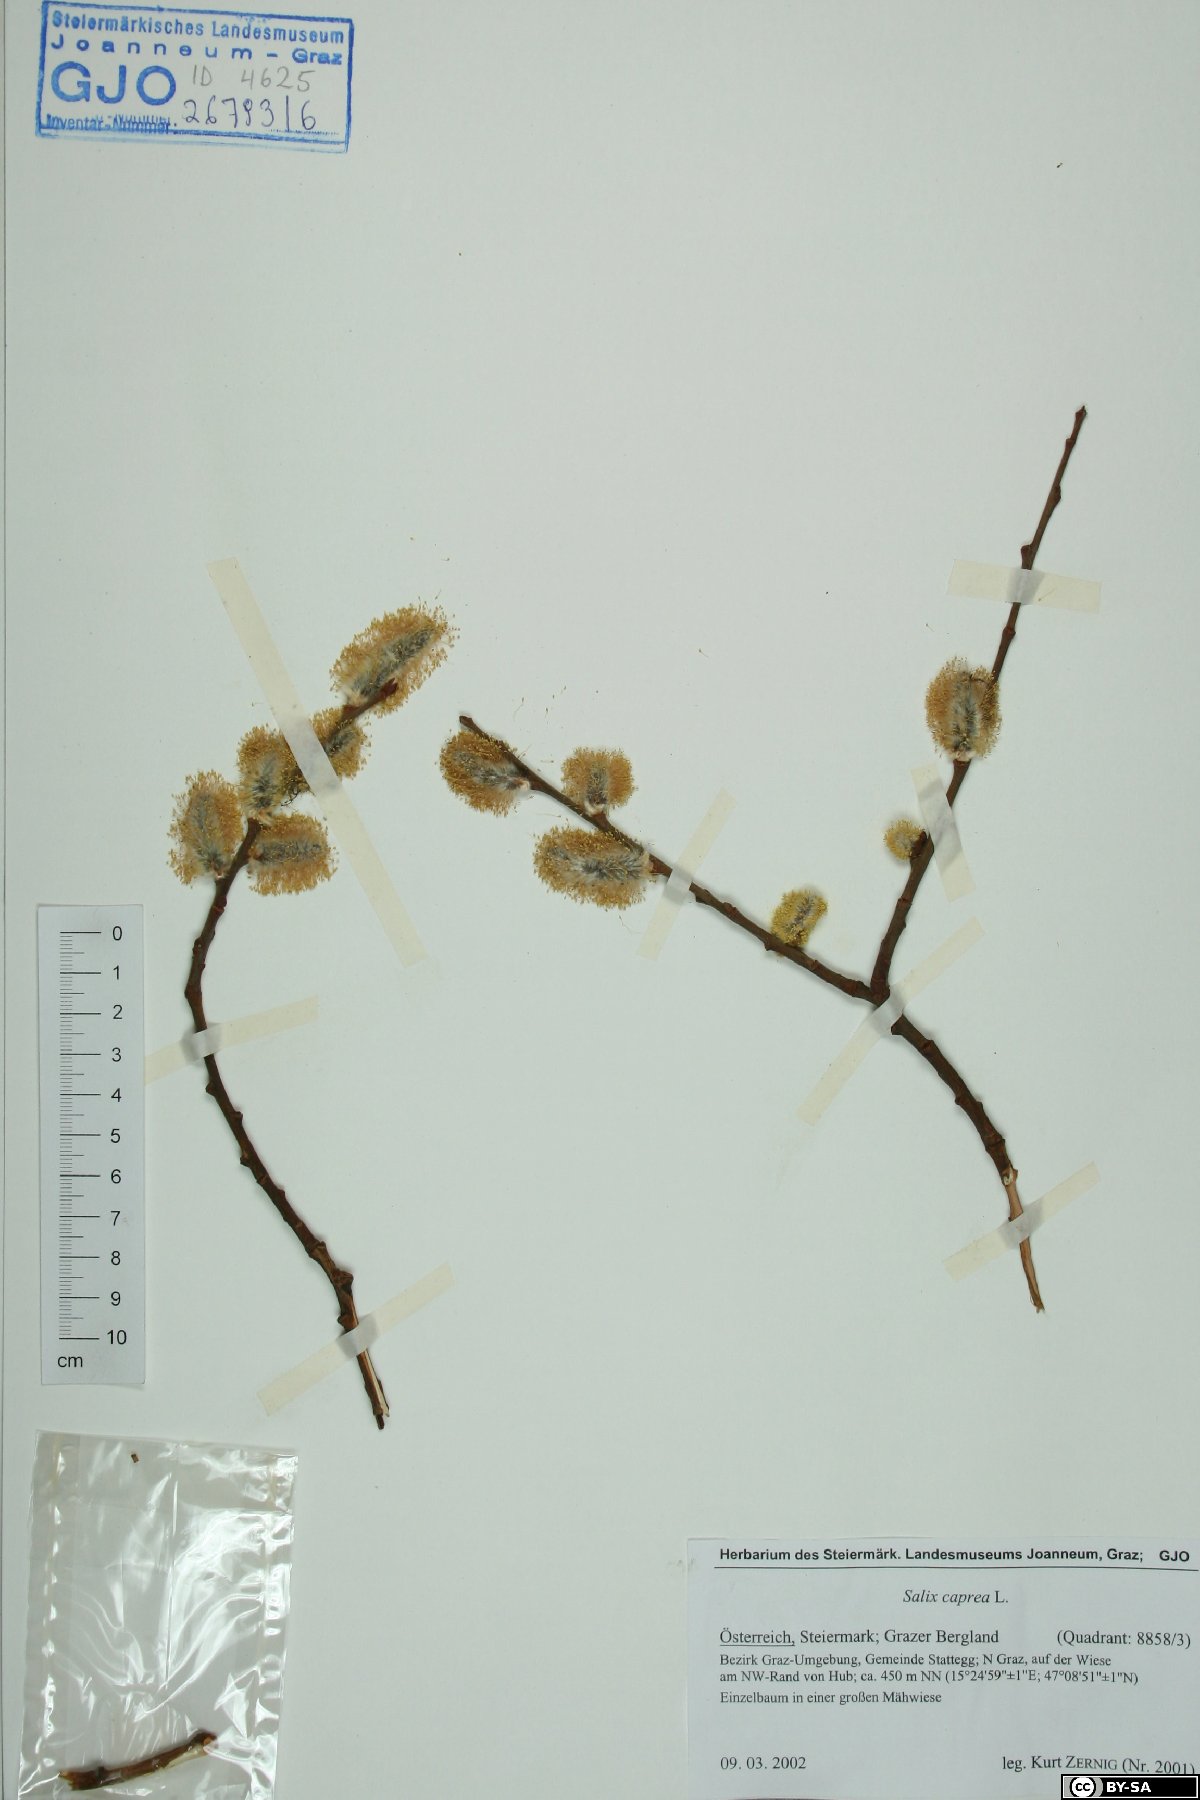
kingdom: Plantae
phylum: Tracheophyta
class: Magnoliopsida
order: Malpighiales
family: Salicaceae
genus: Salix
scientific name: Salix caprea
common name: Goat willow
